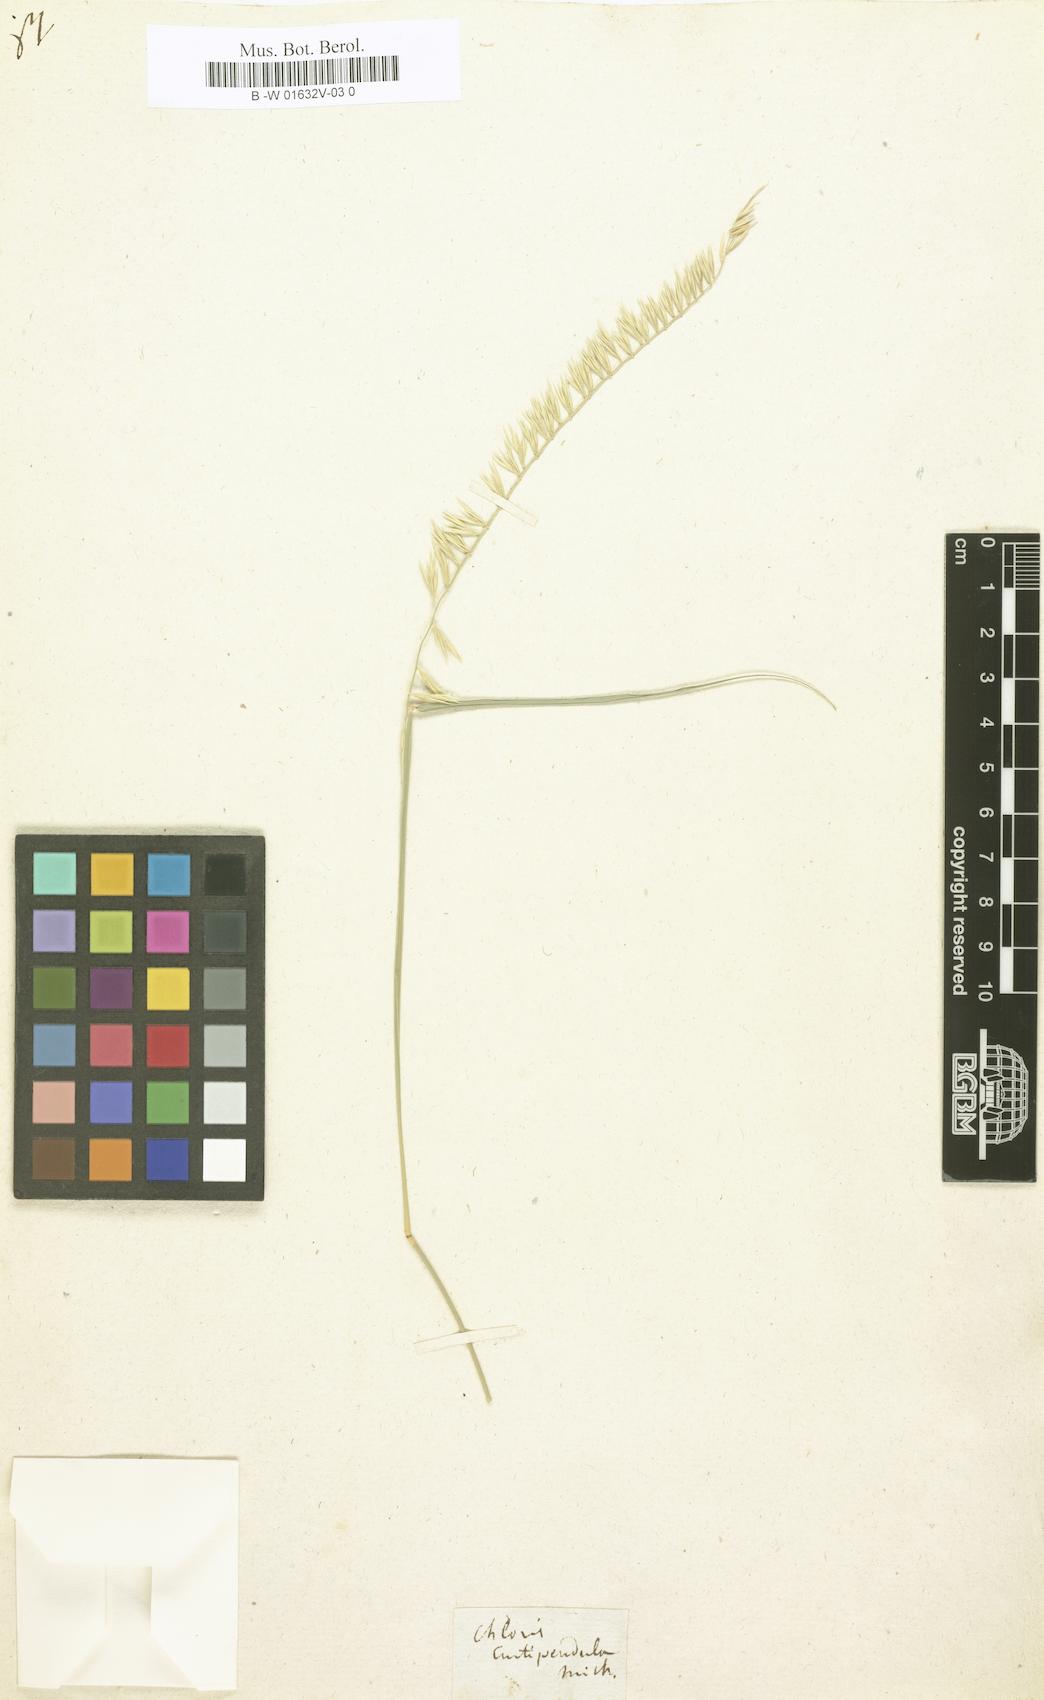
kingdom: Plantae
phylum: Tracheophyta
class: Magnoliopsida
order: Asterales
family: Asteraceae
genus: Nestlera
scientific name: Nestlera
